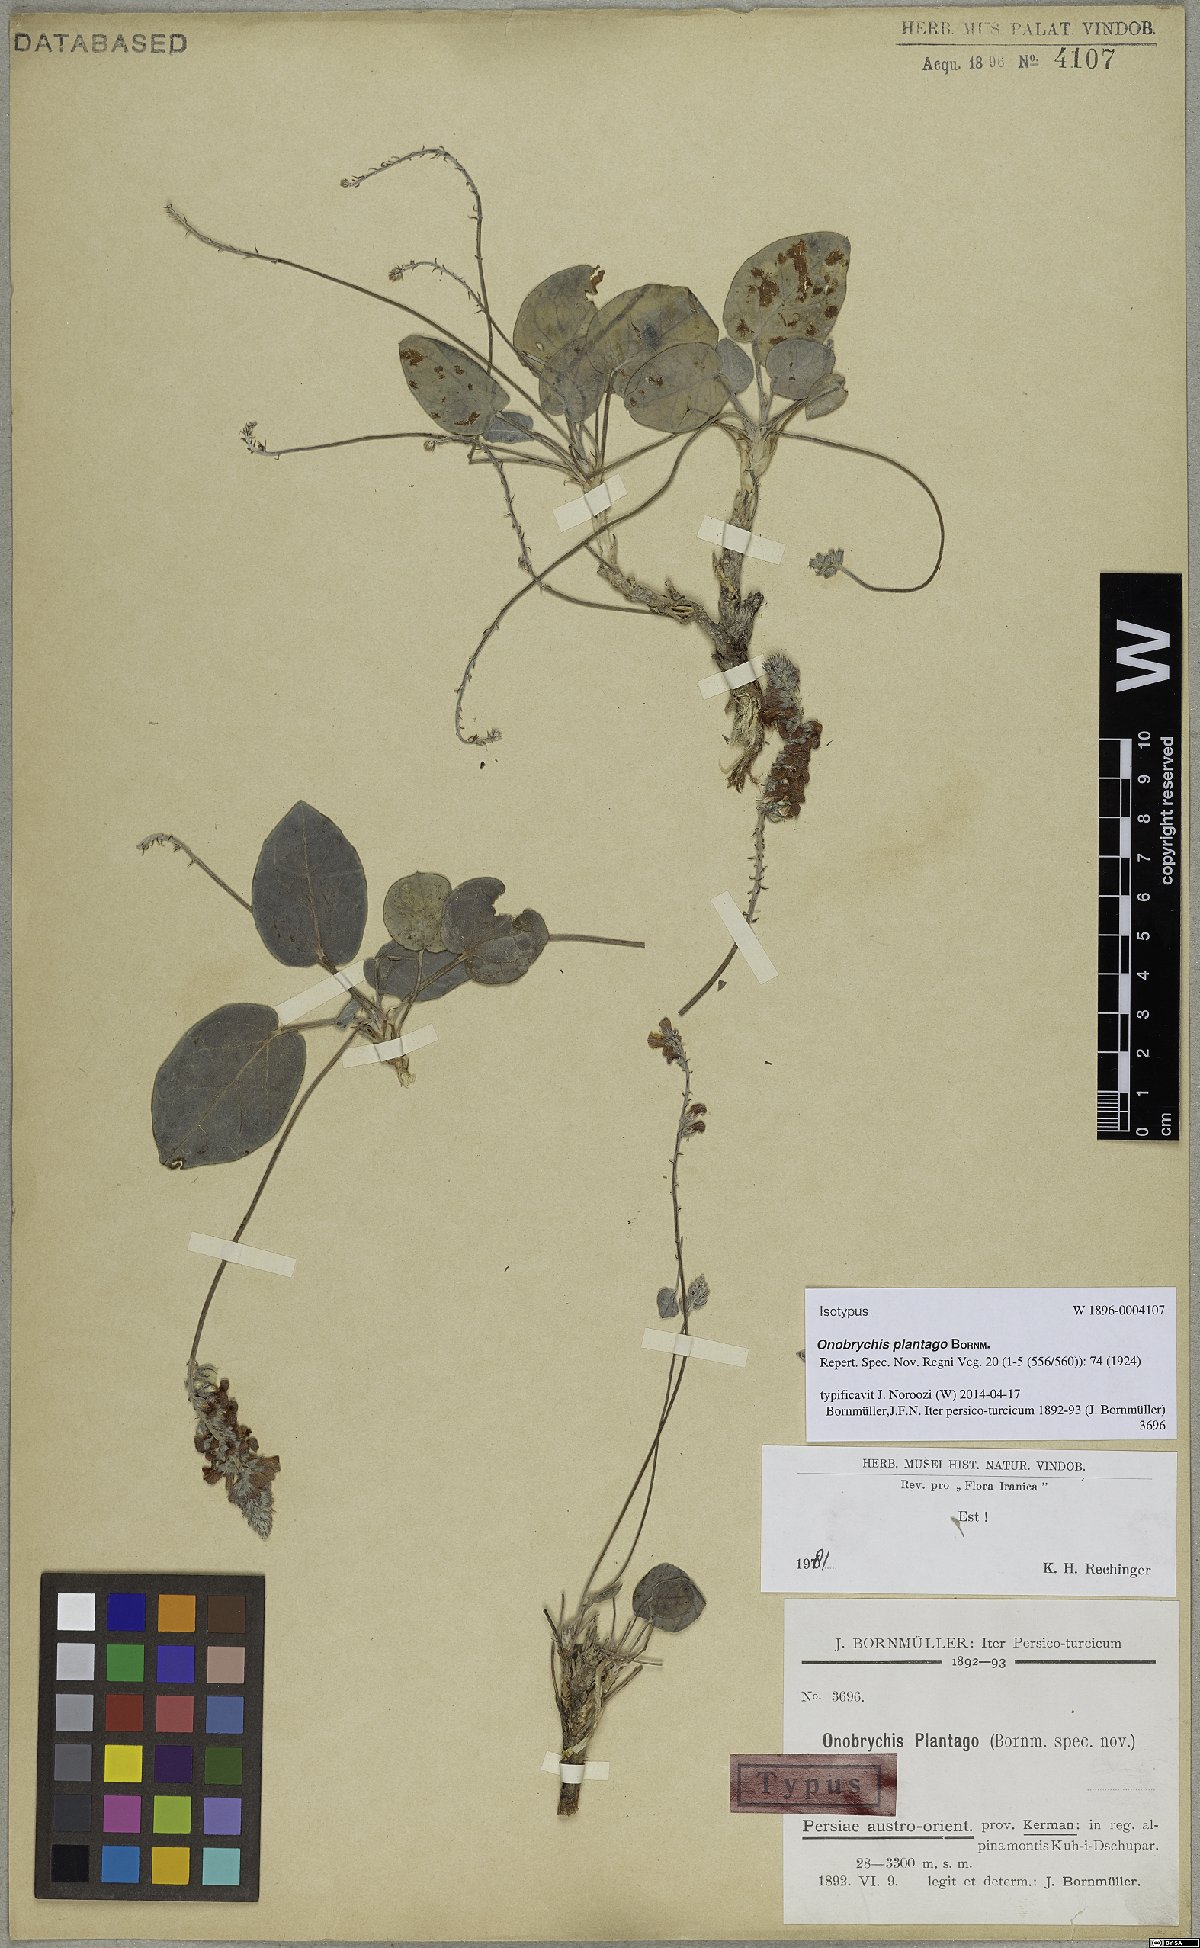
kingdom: Plantae
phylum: Tracheophyta
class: Magnoliopsida
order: Fabales
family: Fabaceae
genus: Onobrychis
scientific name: Onobrychis plantago
